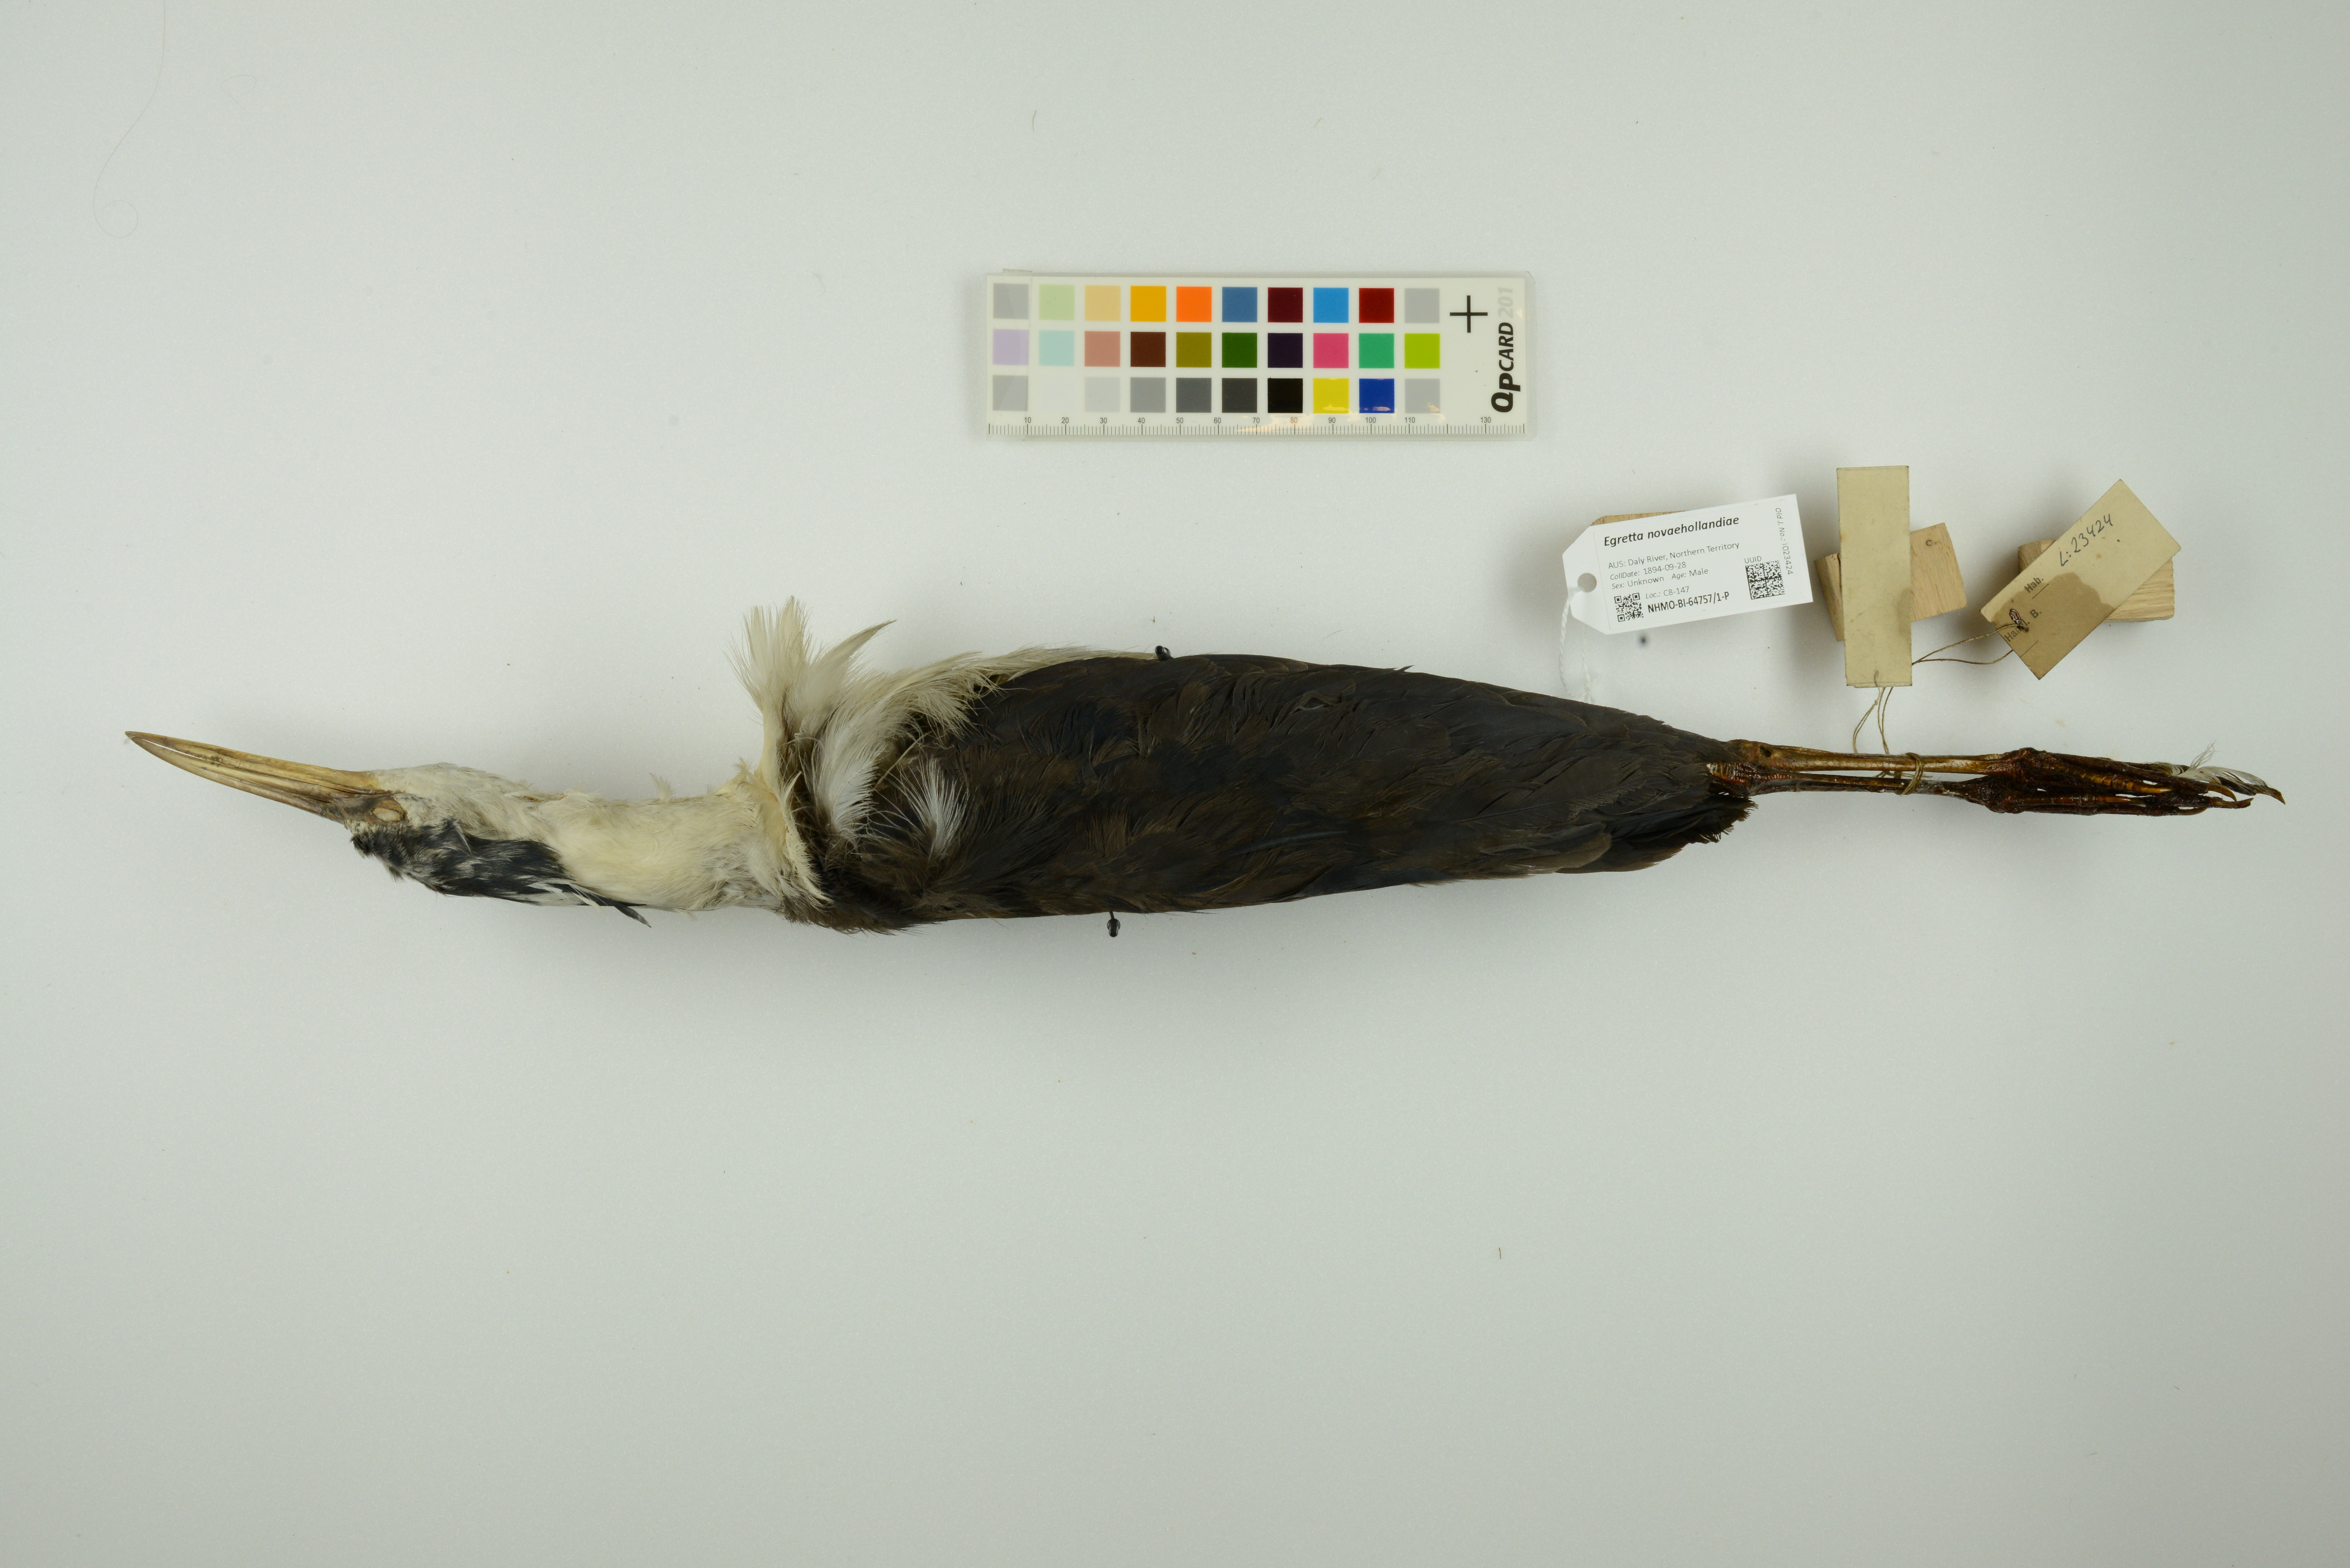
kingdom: Animalia
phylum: Chordata
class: Aves
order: Pelecaniformes
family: Ardeidae
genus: Egretta
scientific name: Egretta novaehollandiae
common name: White-faced heron
